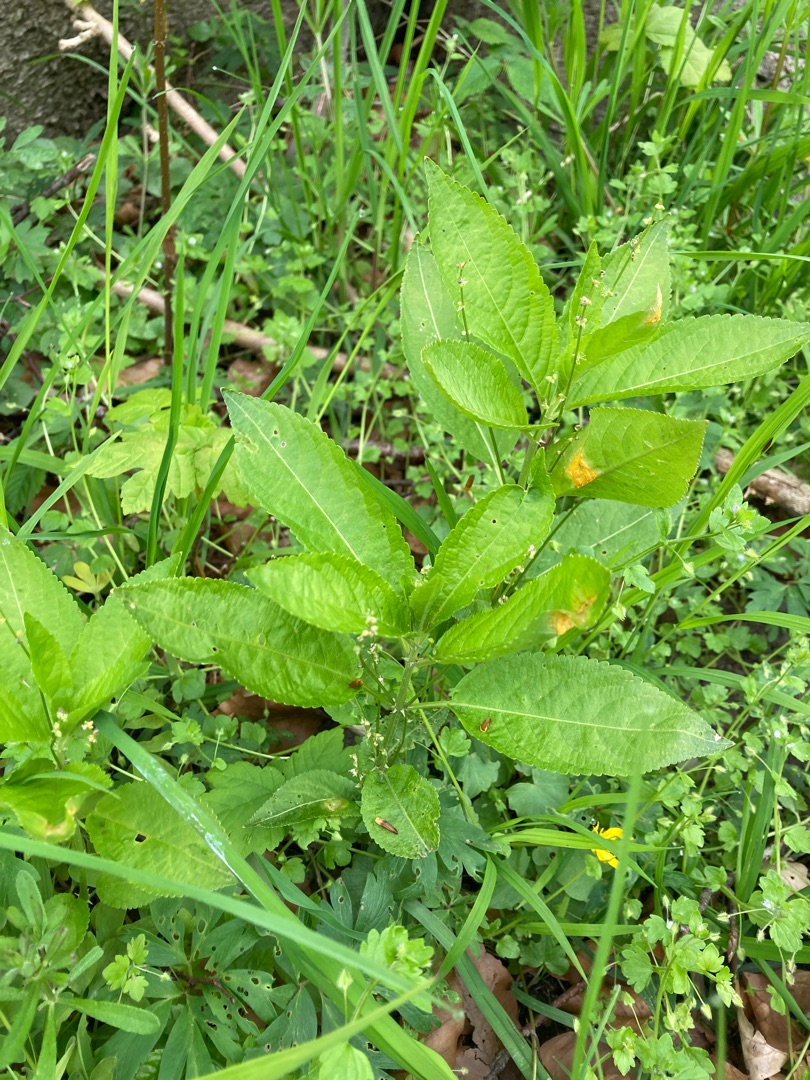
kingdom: Plantae
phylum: Tracheophyta
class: Magnoliopsida
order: Malpighiales
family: Euphorbiaceae
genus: Mercurialis
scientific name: Mercurialis perennis
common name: Almindelig bingelurt
